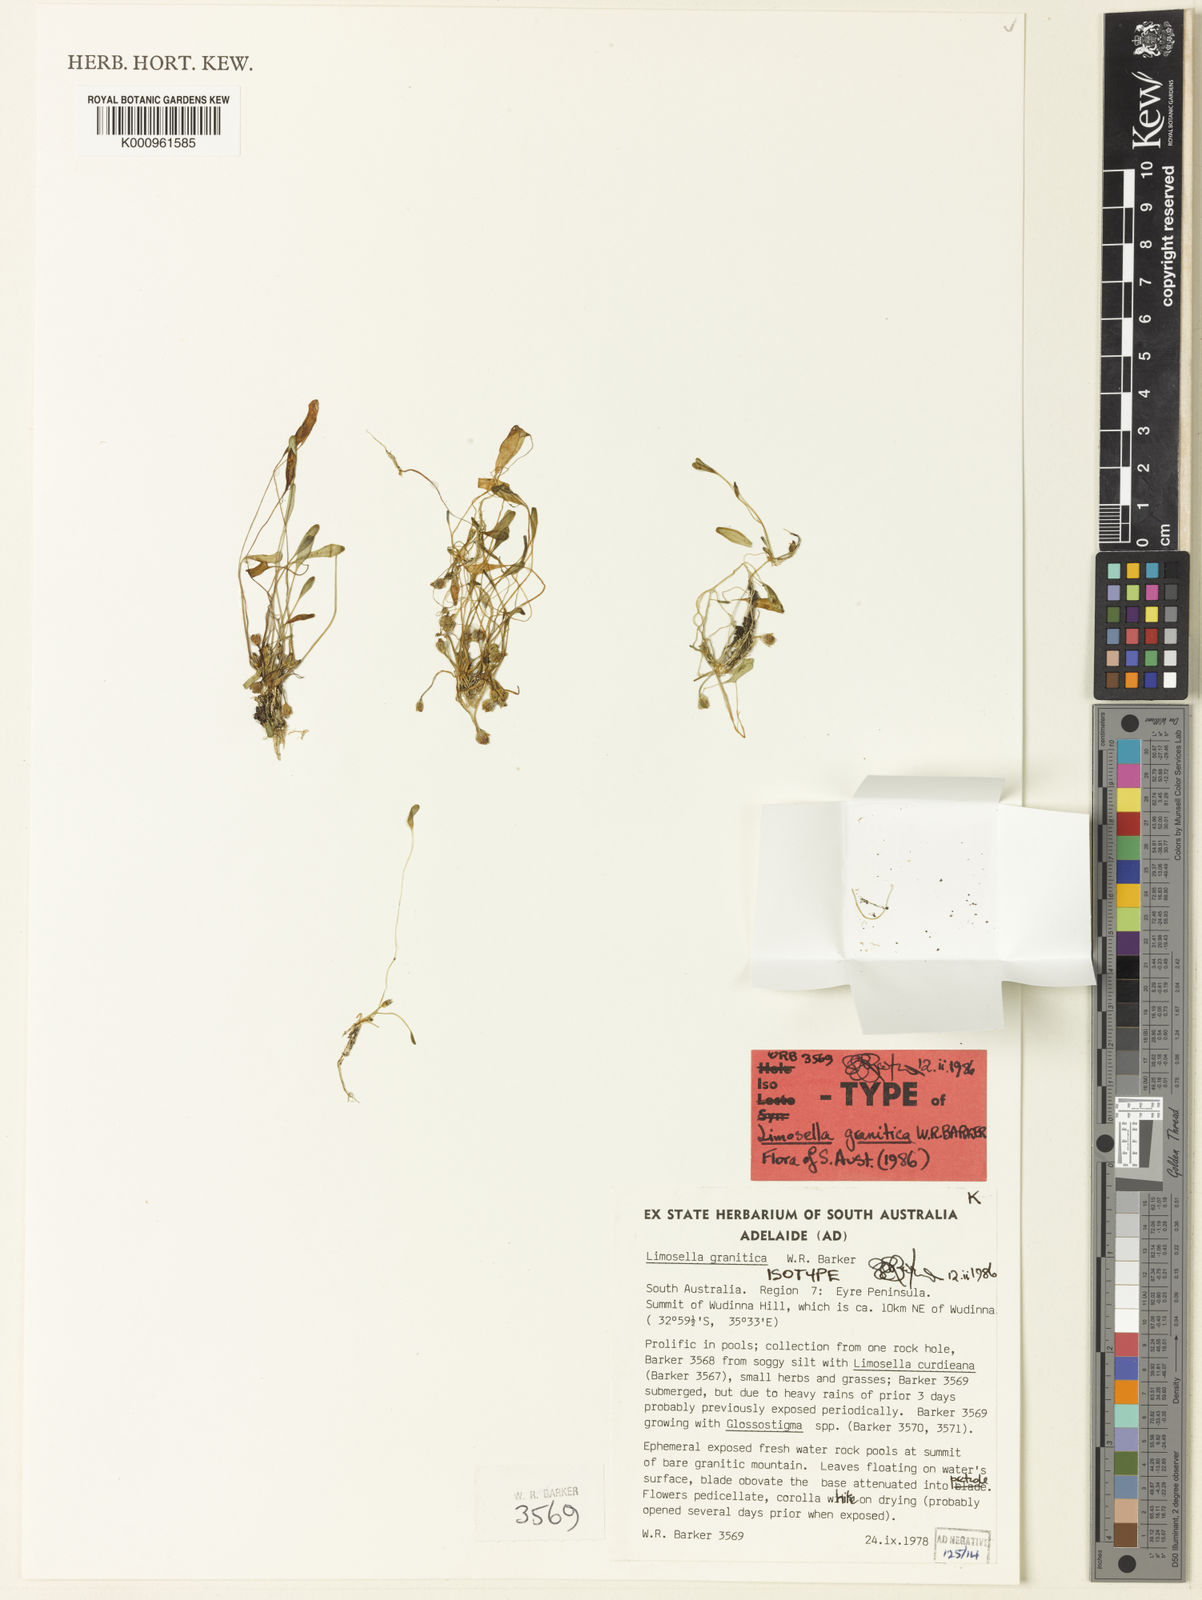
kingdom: Plantae
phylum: Tracheophyta
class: Magnoliopsida
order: Lamiales
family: Scrophulariaceae
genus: Limosella
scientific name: Limosella granitica
